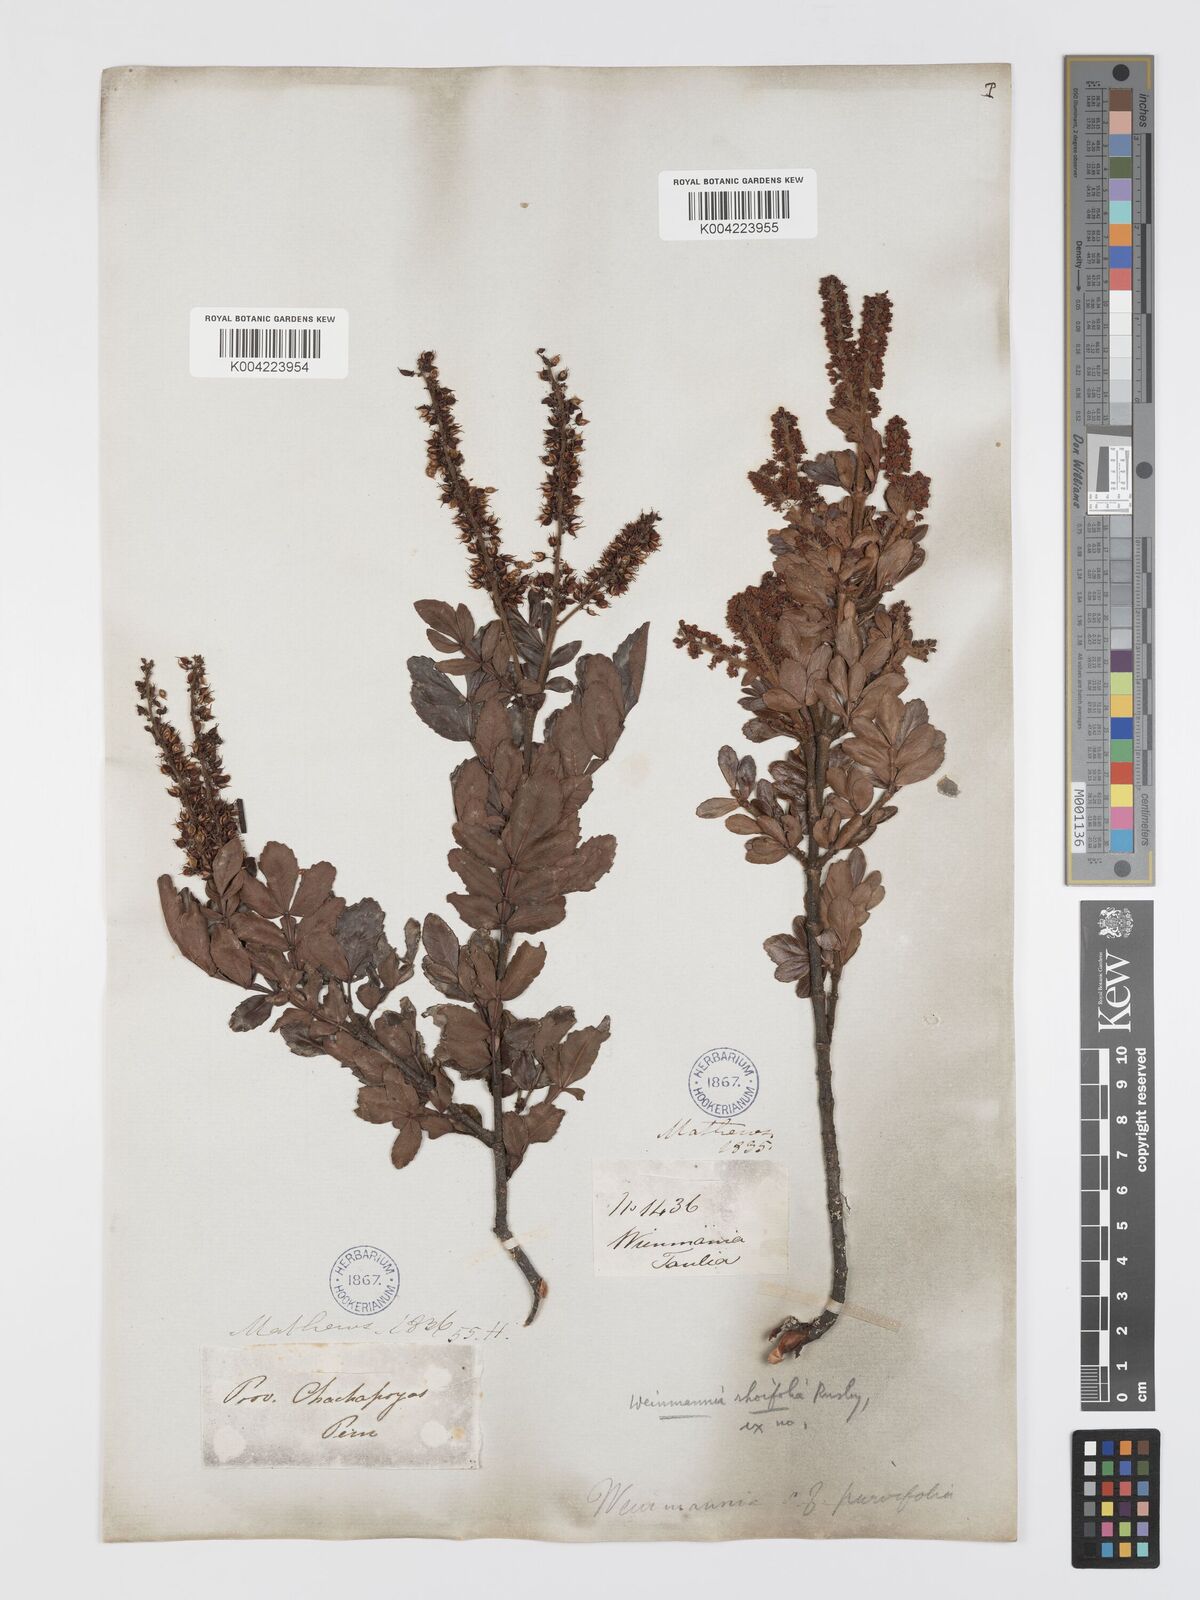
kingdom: Plantae
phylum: Tracheophyta
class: Magnoliopsida
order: Oxalidales
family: Cunoniaceae
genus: Weinmannia
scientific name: Weinmannia rhoifolia
